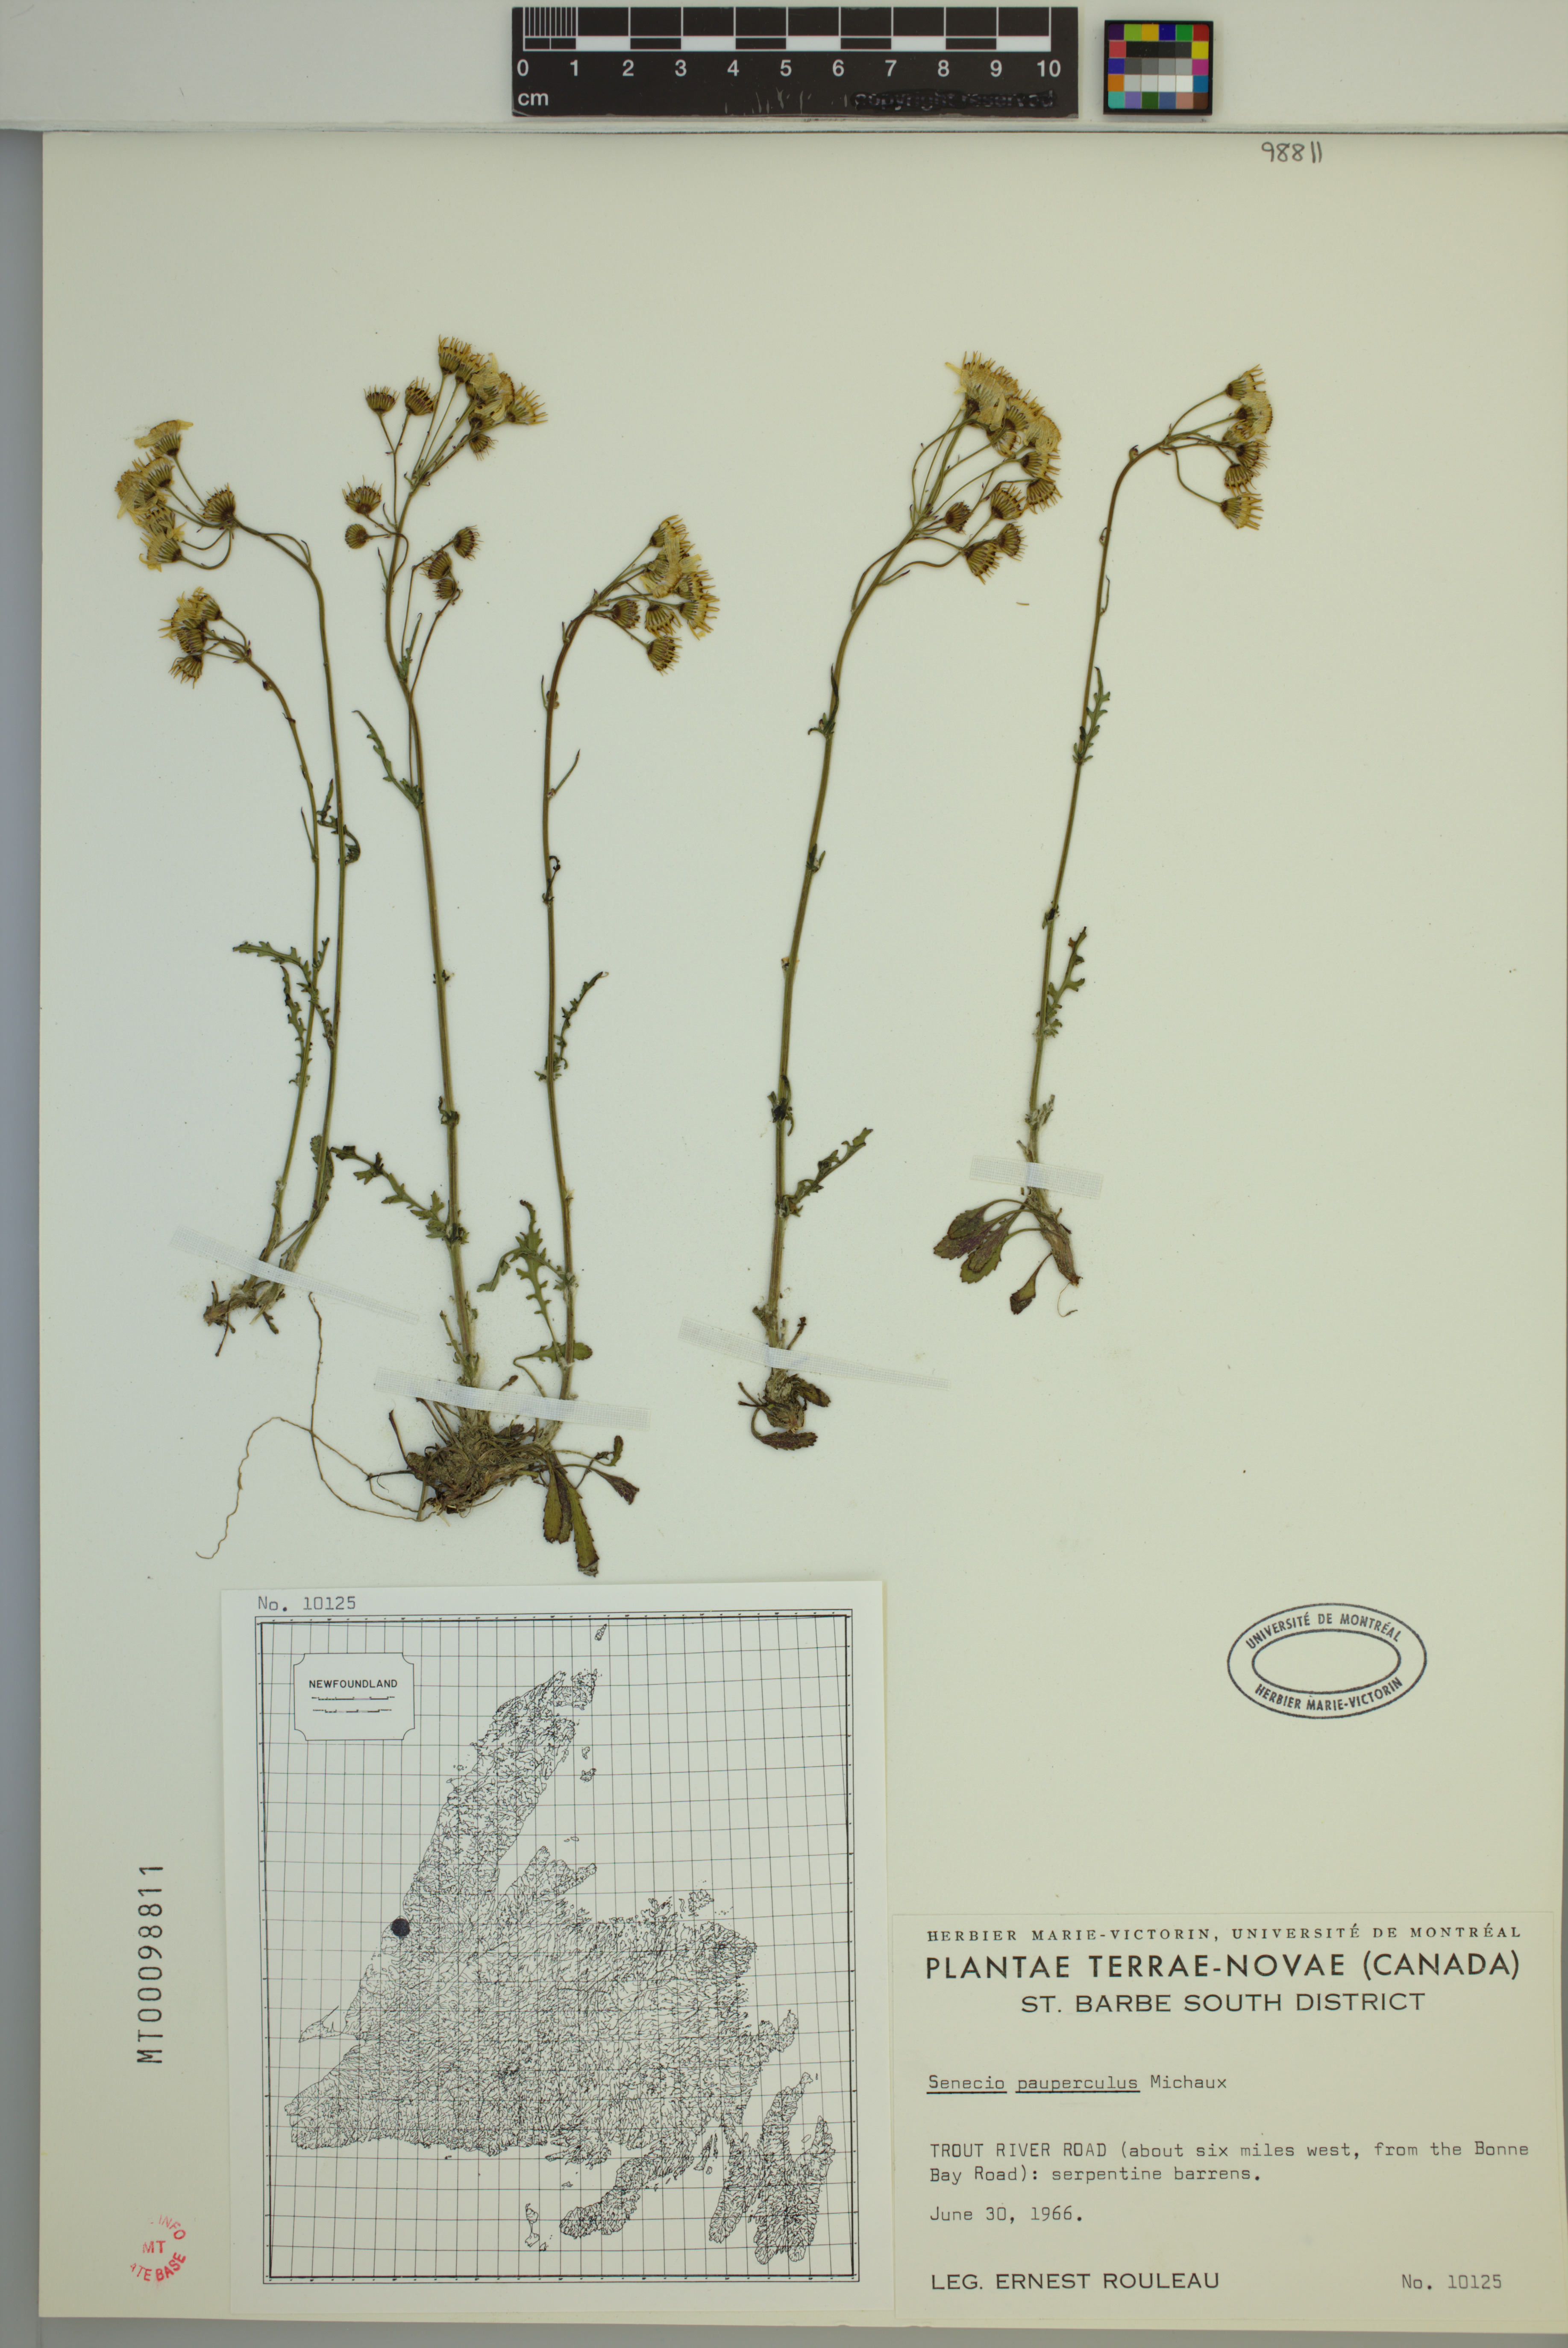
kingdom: Plantae
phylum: Tracheophyta
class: Magnoliopsida
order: Asterales
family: Asteraceae
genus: Packera
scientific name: Packera paupercula
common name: Balsam groundsel
